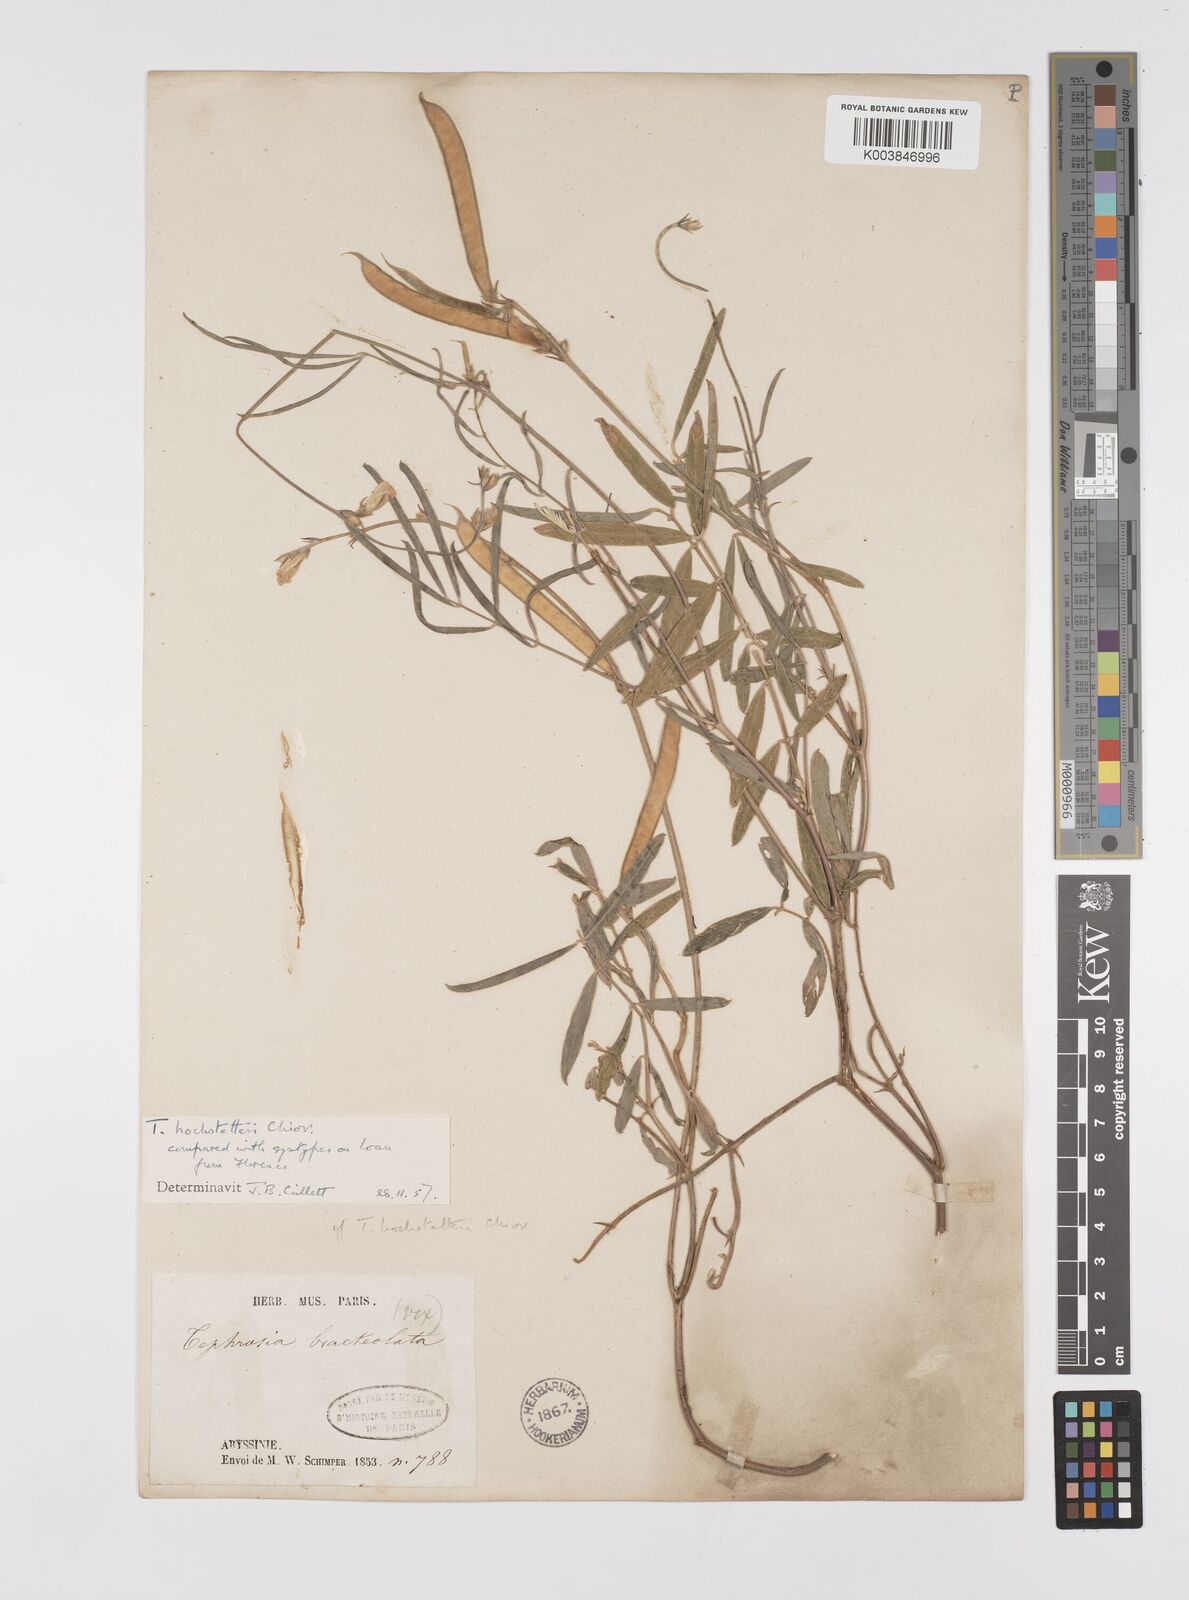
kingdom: Plantae
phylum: Tracheophyta
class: Magnoliopsida
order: Fabales
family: Fabaceae
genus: Tephrosia
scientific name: Tephrosia hochstetteri
